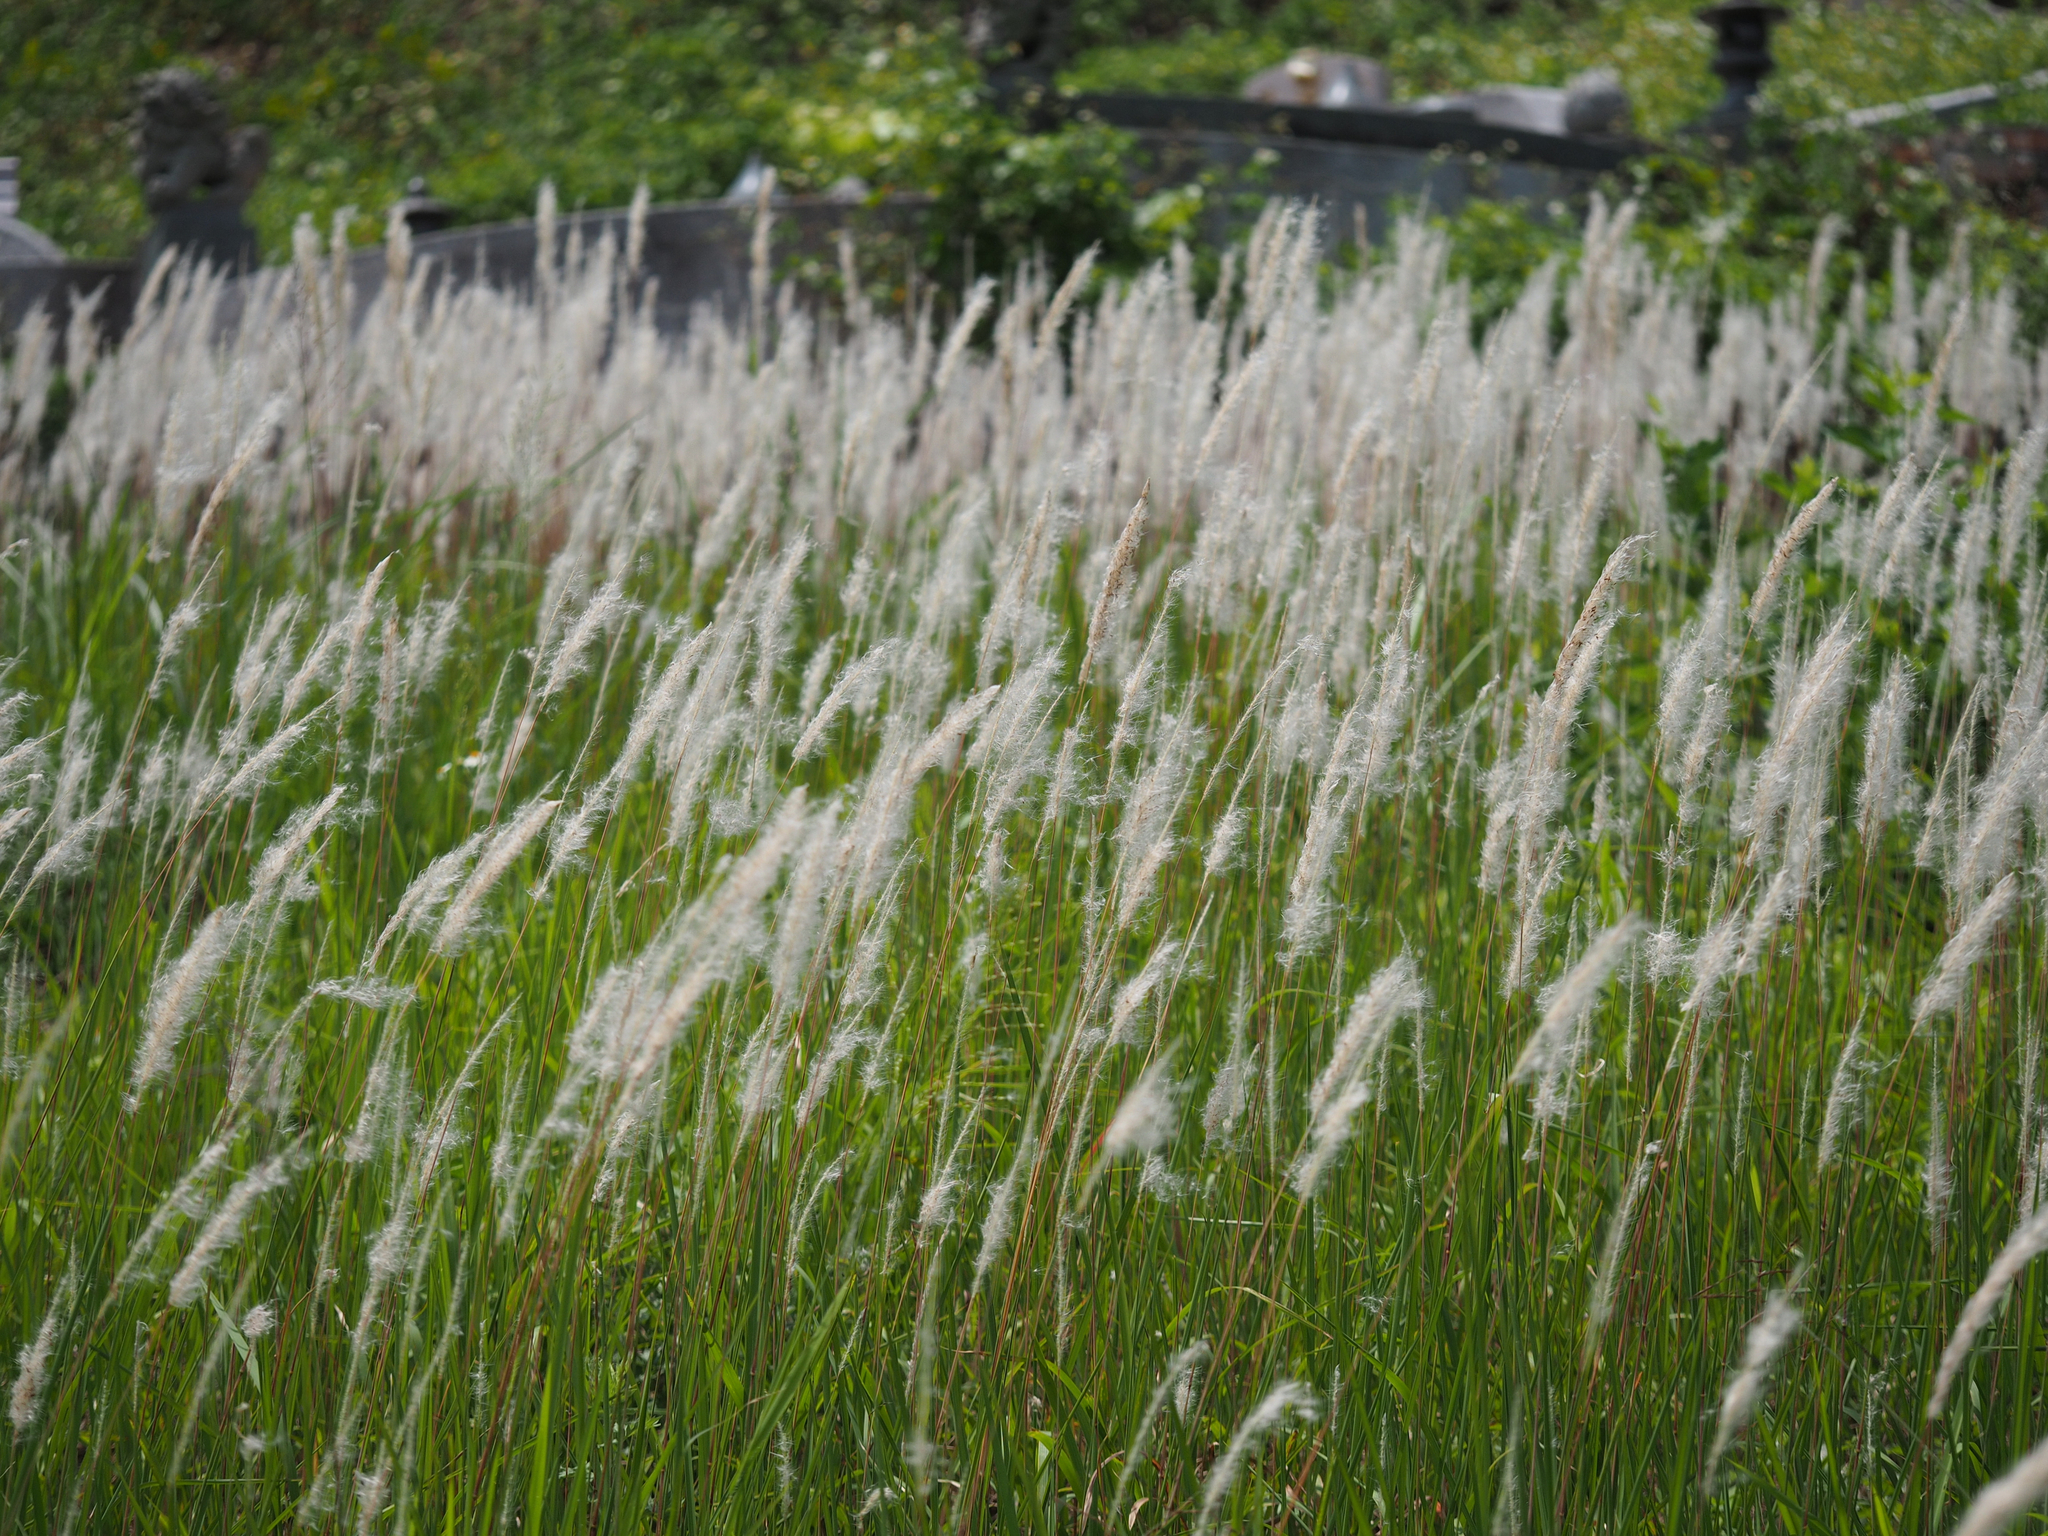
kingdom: Plantae
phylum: Tracheophyta
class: Liliopsida
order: Poales
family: Poaceae
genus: Imperata
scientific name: Imperata cylindrica
